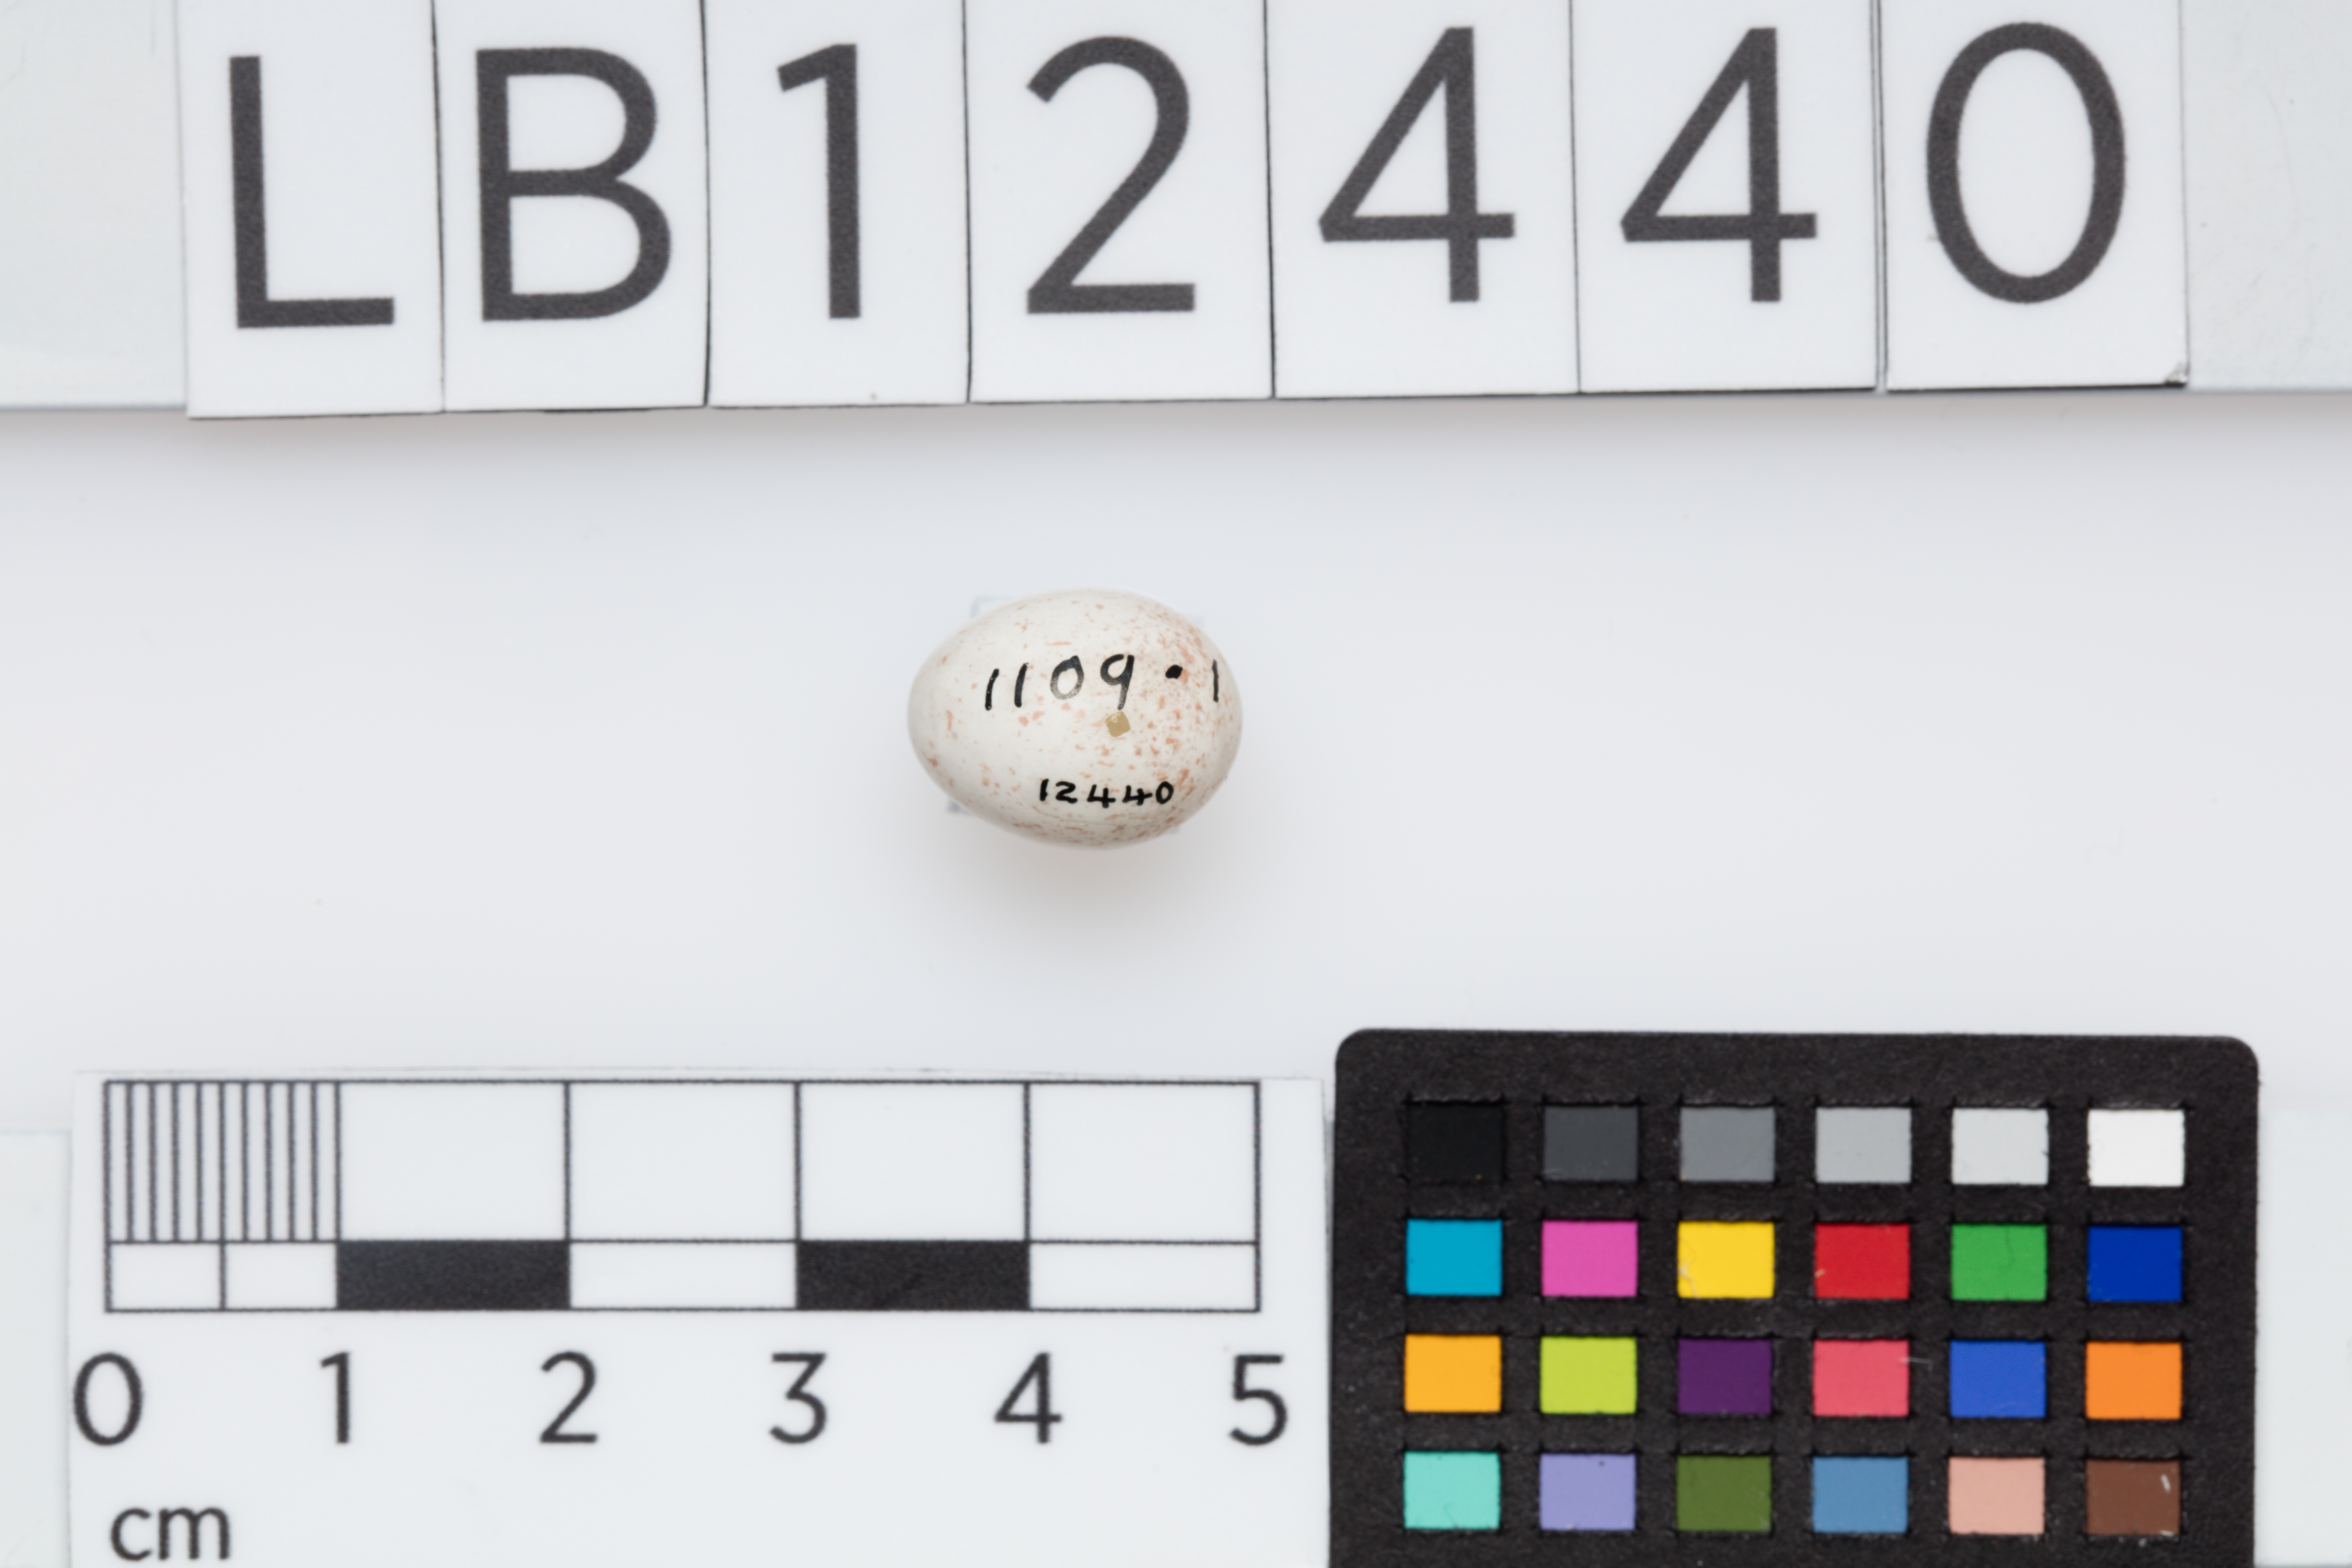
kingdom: Animalia
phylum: Chordata
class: Aves
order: Passeriformes
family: Aegithalidae
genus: Aegithalos
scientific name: Aegithalos caudatus
